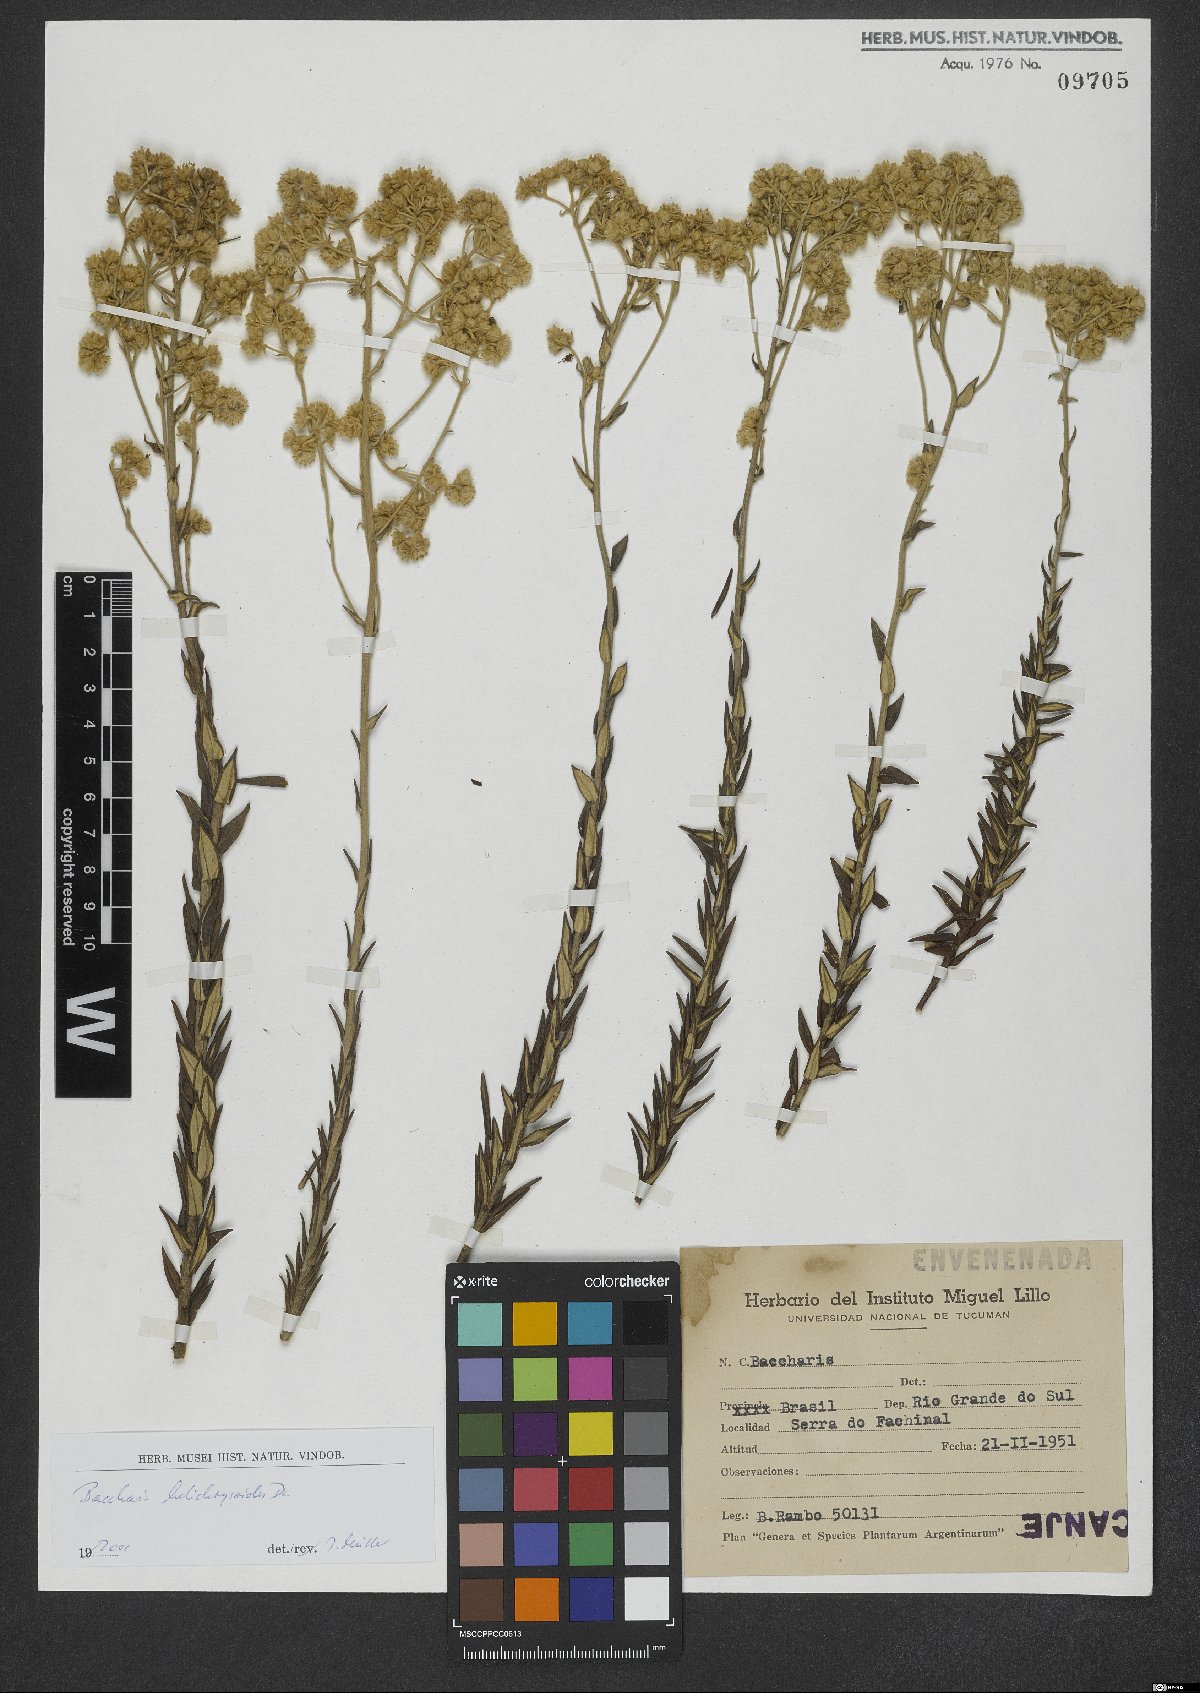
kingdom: Plantae
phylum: Tracheophyta
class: Magnoliopsida
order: Asterales
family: Asteraceae
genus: Baccharis
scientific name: Baccharis helichrysoides
